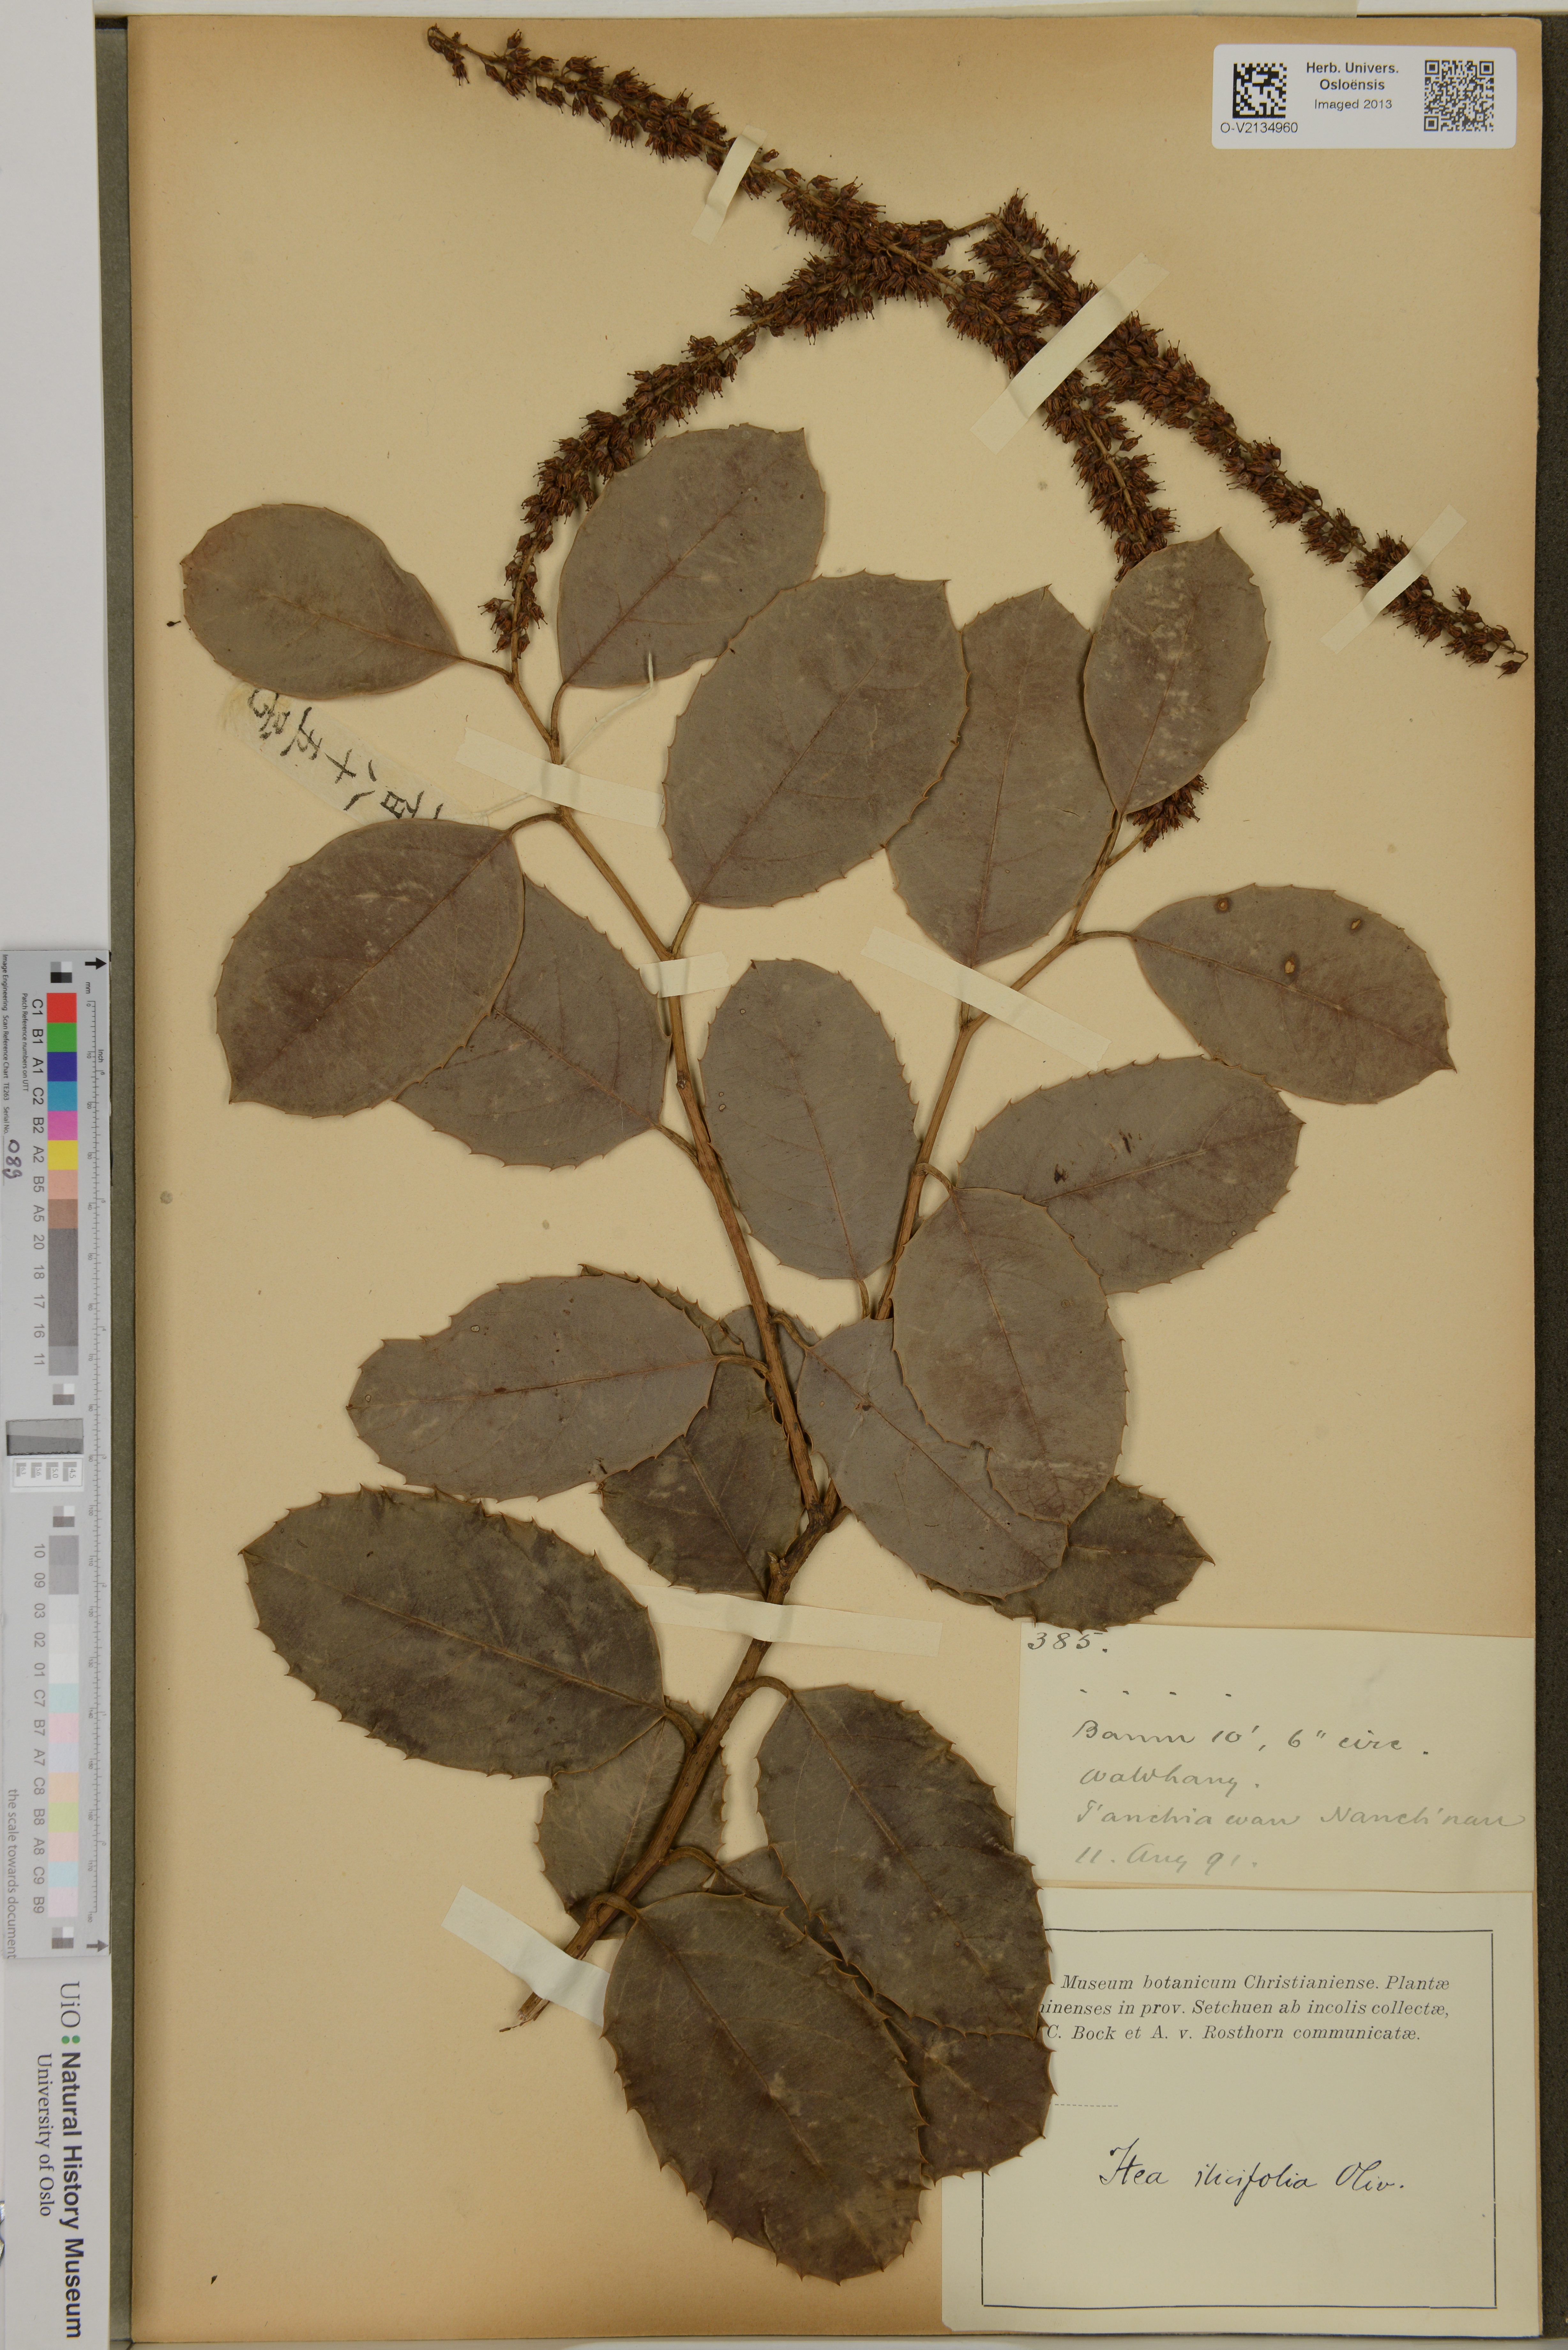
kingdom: Plantae
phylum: Tracheophyta
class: Magnoliopsida
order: Saxifragales
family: Iteaceae
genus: Itea
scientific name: Itea ilicifolia
